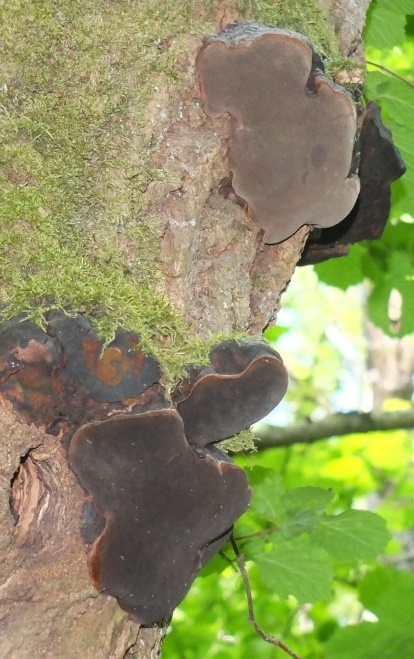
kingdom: Fungi
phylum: Basidiomycota
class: Agaricomycetes
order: Hymenochaetales
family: Hymenochaetaceae
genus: Phellinus
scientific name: Phellinus populicola
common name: poppel-ildporesvamp
